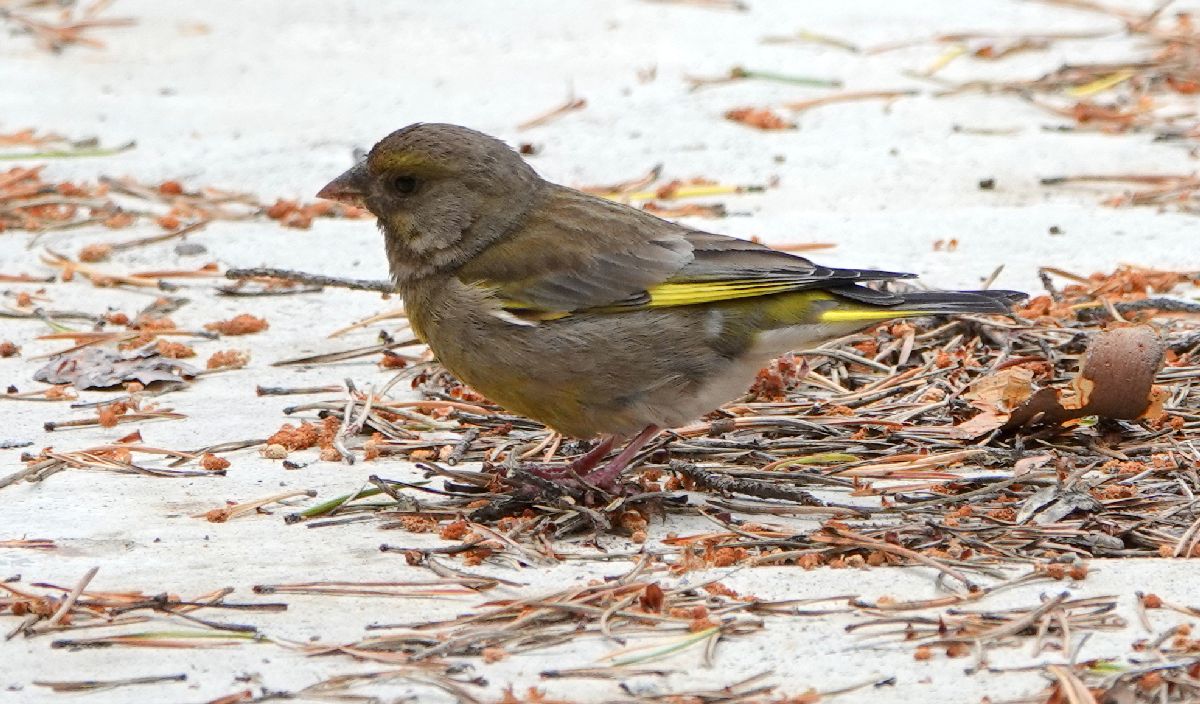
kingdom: Plantae
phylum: Tracheophyta
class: Liliopsida
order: Poales
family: Poaceae
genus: Chloris
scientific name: Chloris chloris
